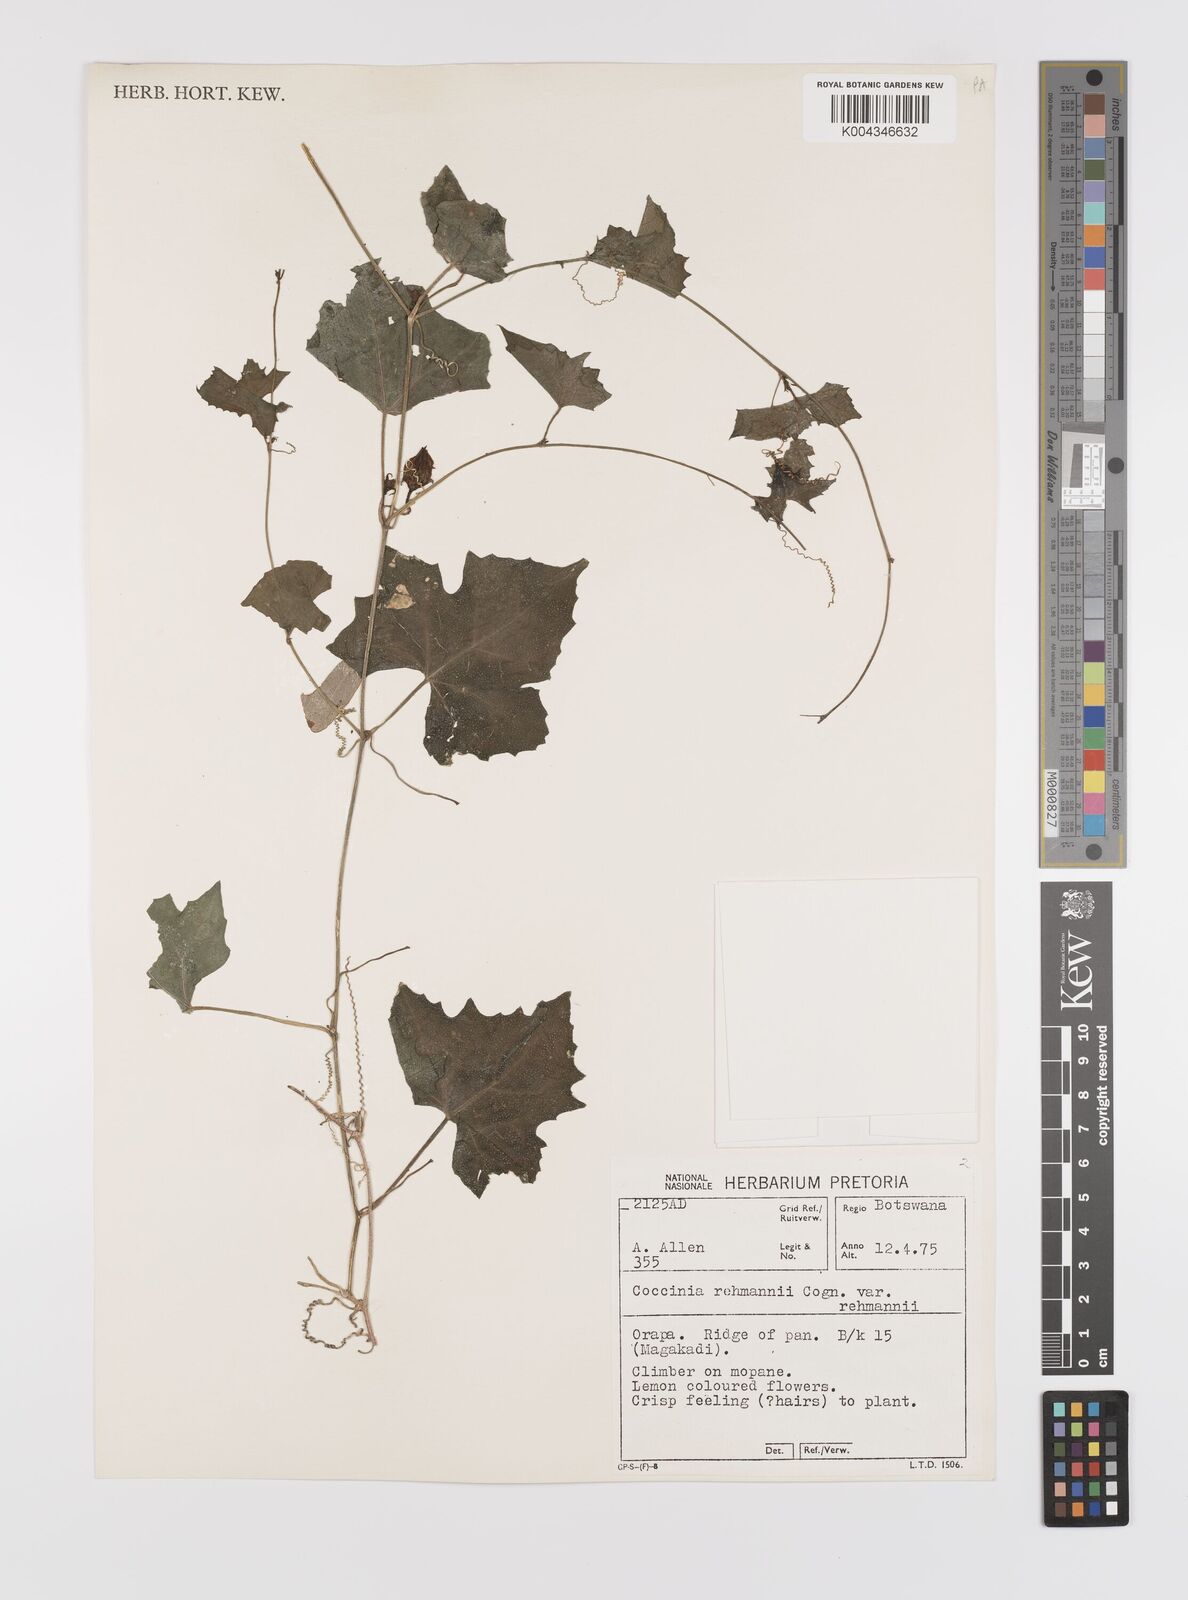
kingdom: Plantae
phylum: Tracheophyta
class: Magnoliopsida
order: Cucurbitales
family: Cucurbitaceae
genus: Coccinia
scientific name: Coccinia rehmannii
